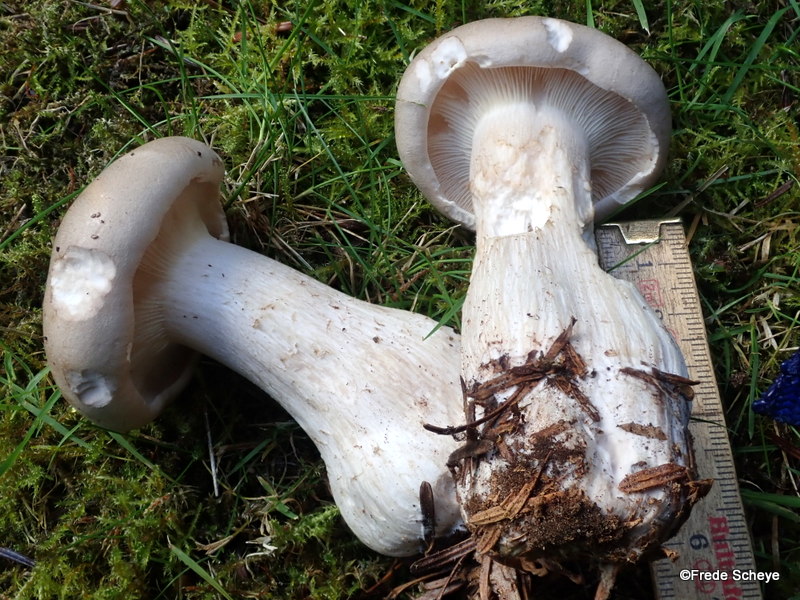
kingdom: Fungi
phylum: Basidiomycota
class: Agaricomycetes
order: Agaricales
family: Tricholomataceae
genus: Clitocybe
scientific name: Clitocybe nebularis
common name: tåge-tragthat
